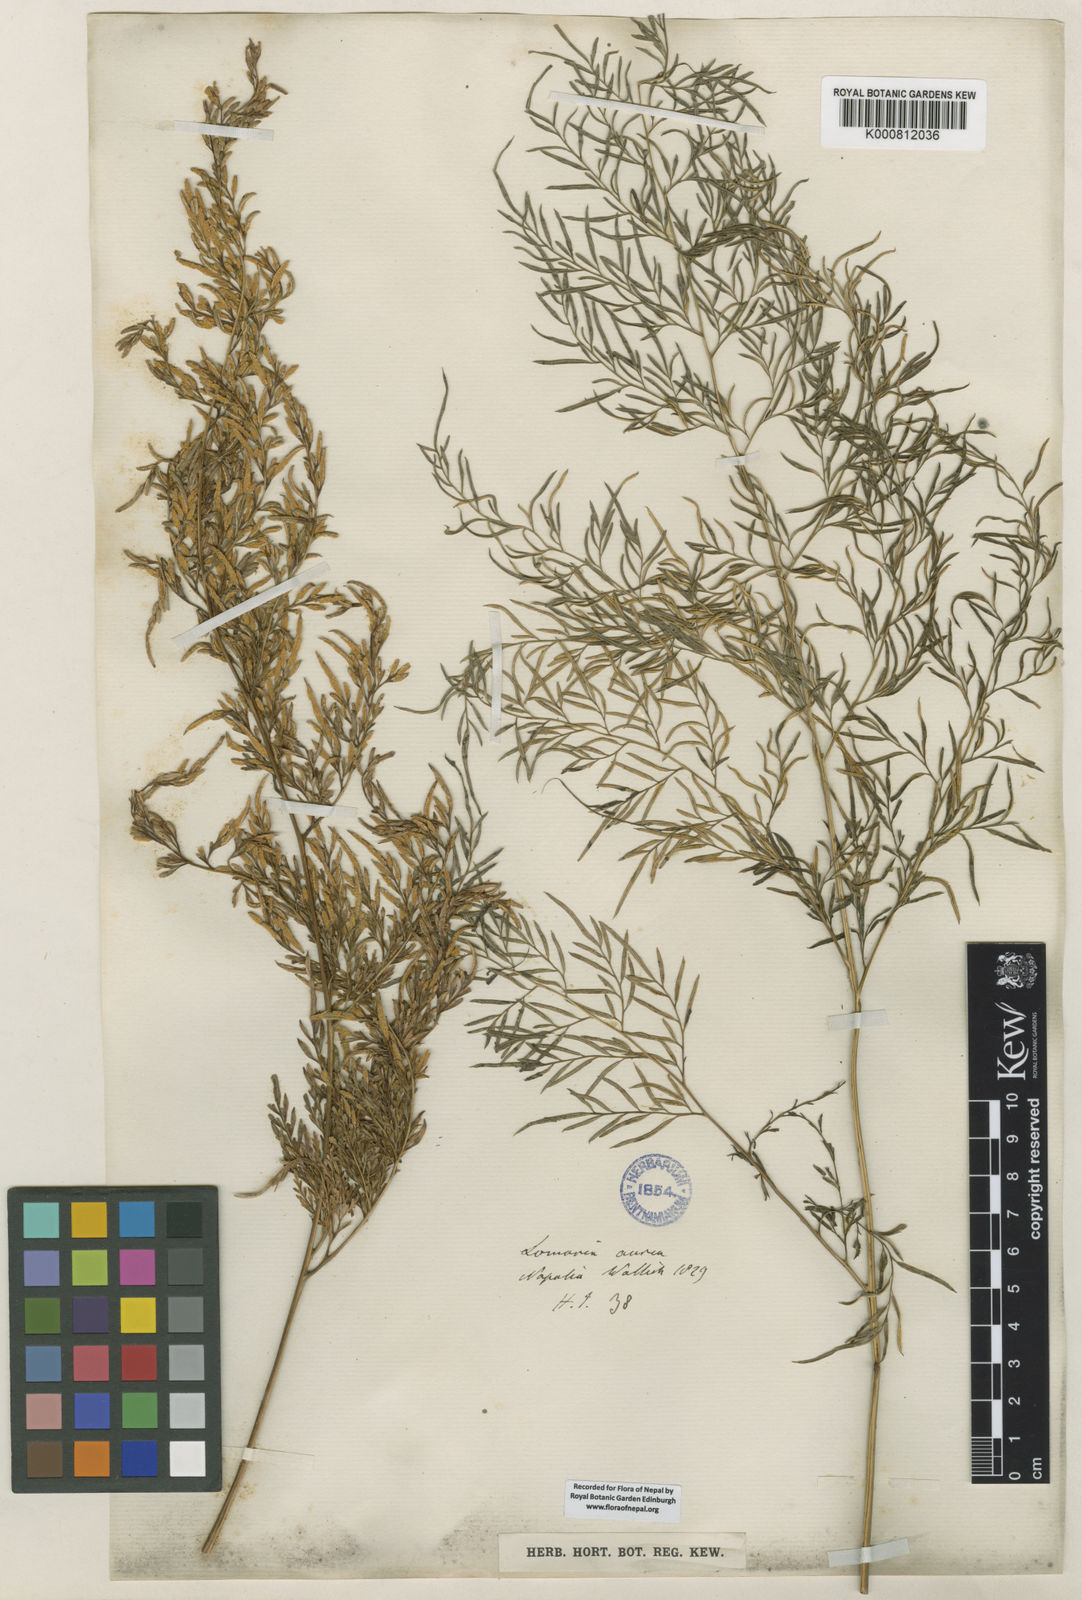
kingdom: Plantae
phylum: Tracheophyta
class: Polypodiopsida
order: Polypodiales
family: Pteridaceae
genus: Onychium
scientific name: Onychium siliculosum
